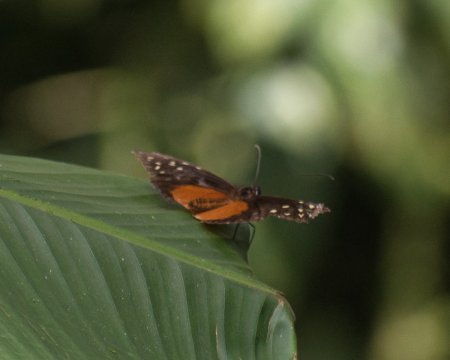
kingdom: Animalia
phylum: Arthropoda
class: Insecta
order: Lepidoptera
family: Nymphalidae
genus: Tithorea
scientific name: Tithorea tarricina
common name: Cream-spotted Tigerwing
